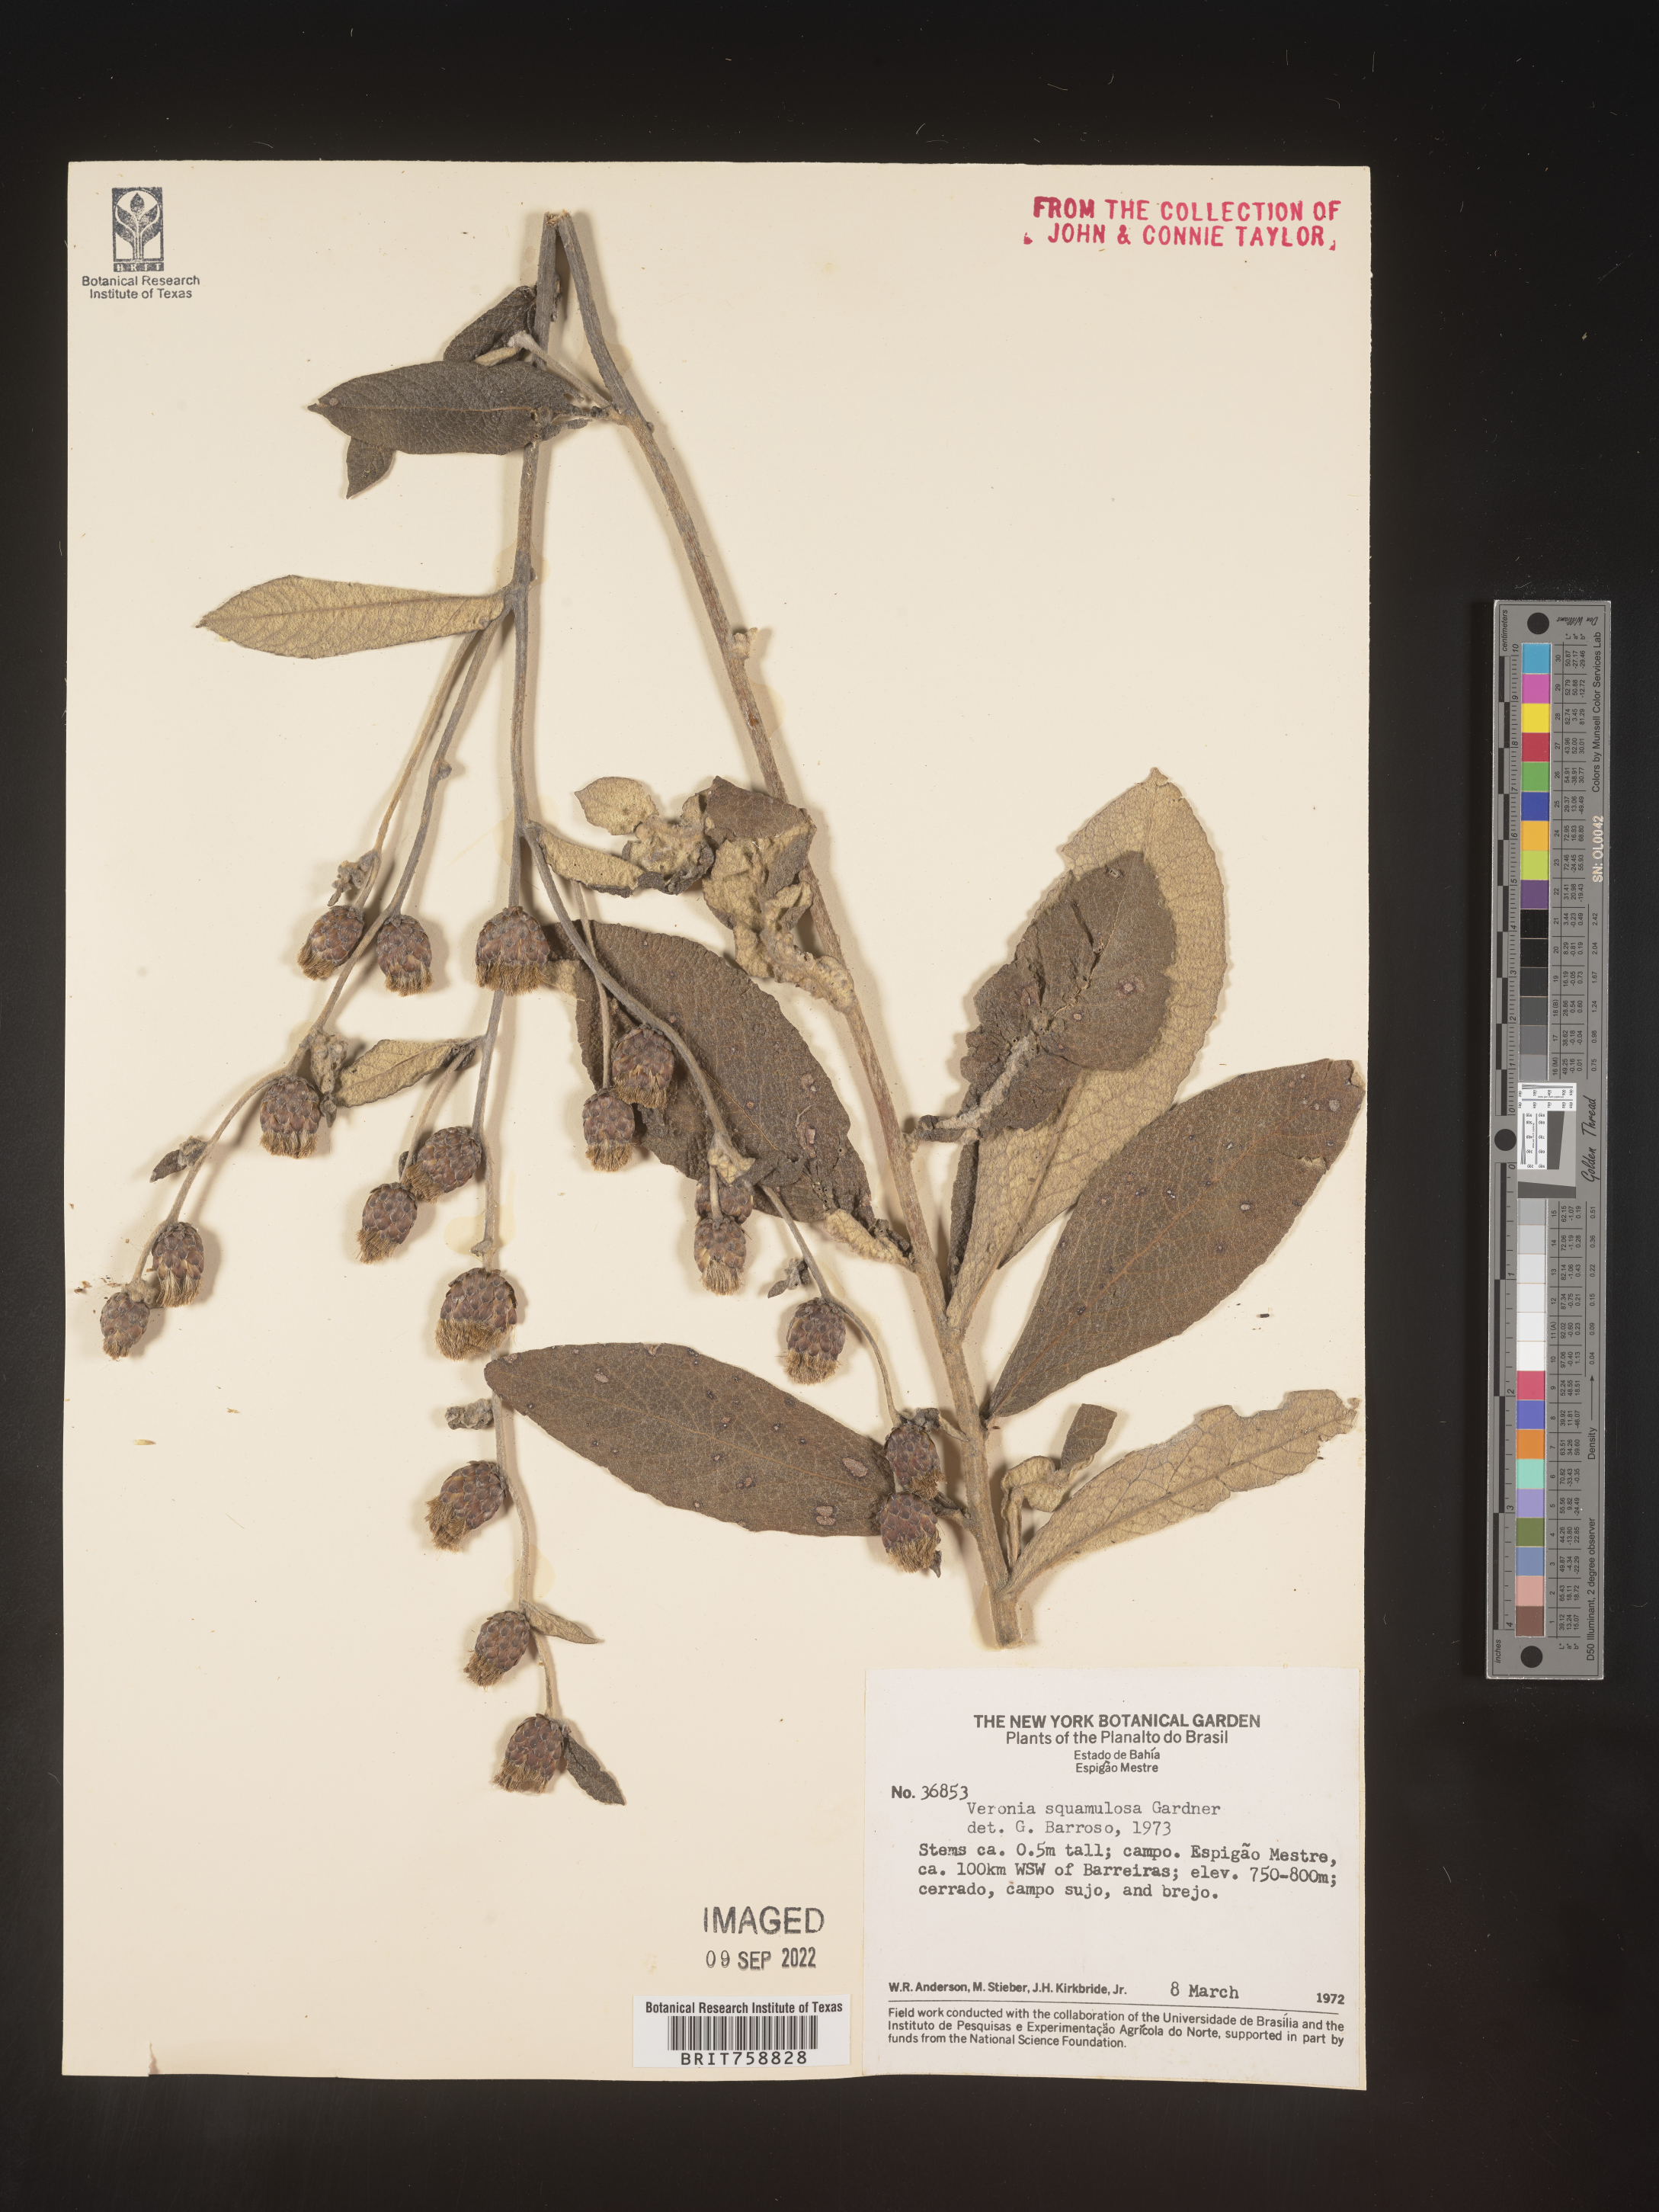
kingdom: Plantae
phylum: Tracheophyta
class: Magnoliopsida
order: Asterales
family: Asteraceae
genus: Vernonia
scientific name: Vernonia
